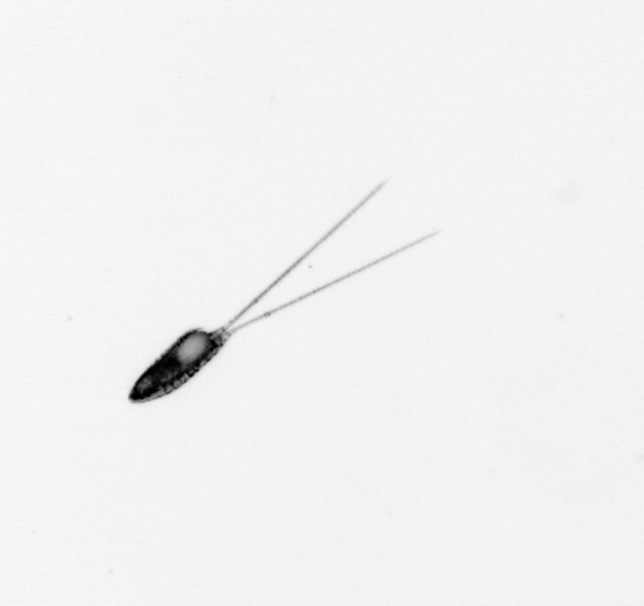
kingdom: Animalia
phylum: Arthropoda
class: Copepoda
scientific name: Copepoda
